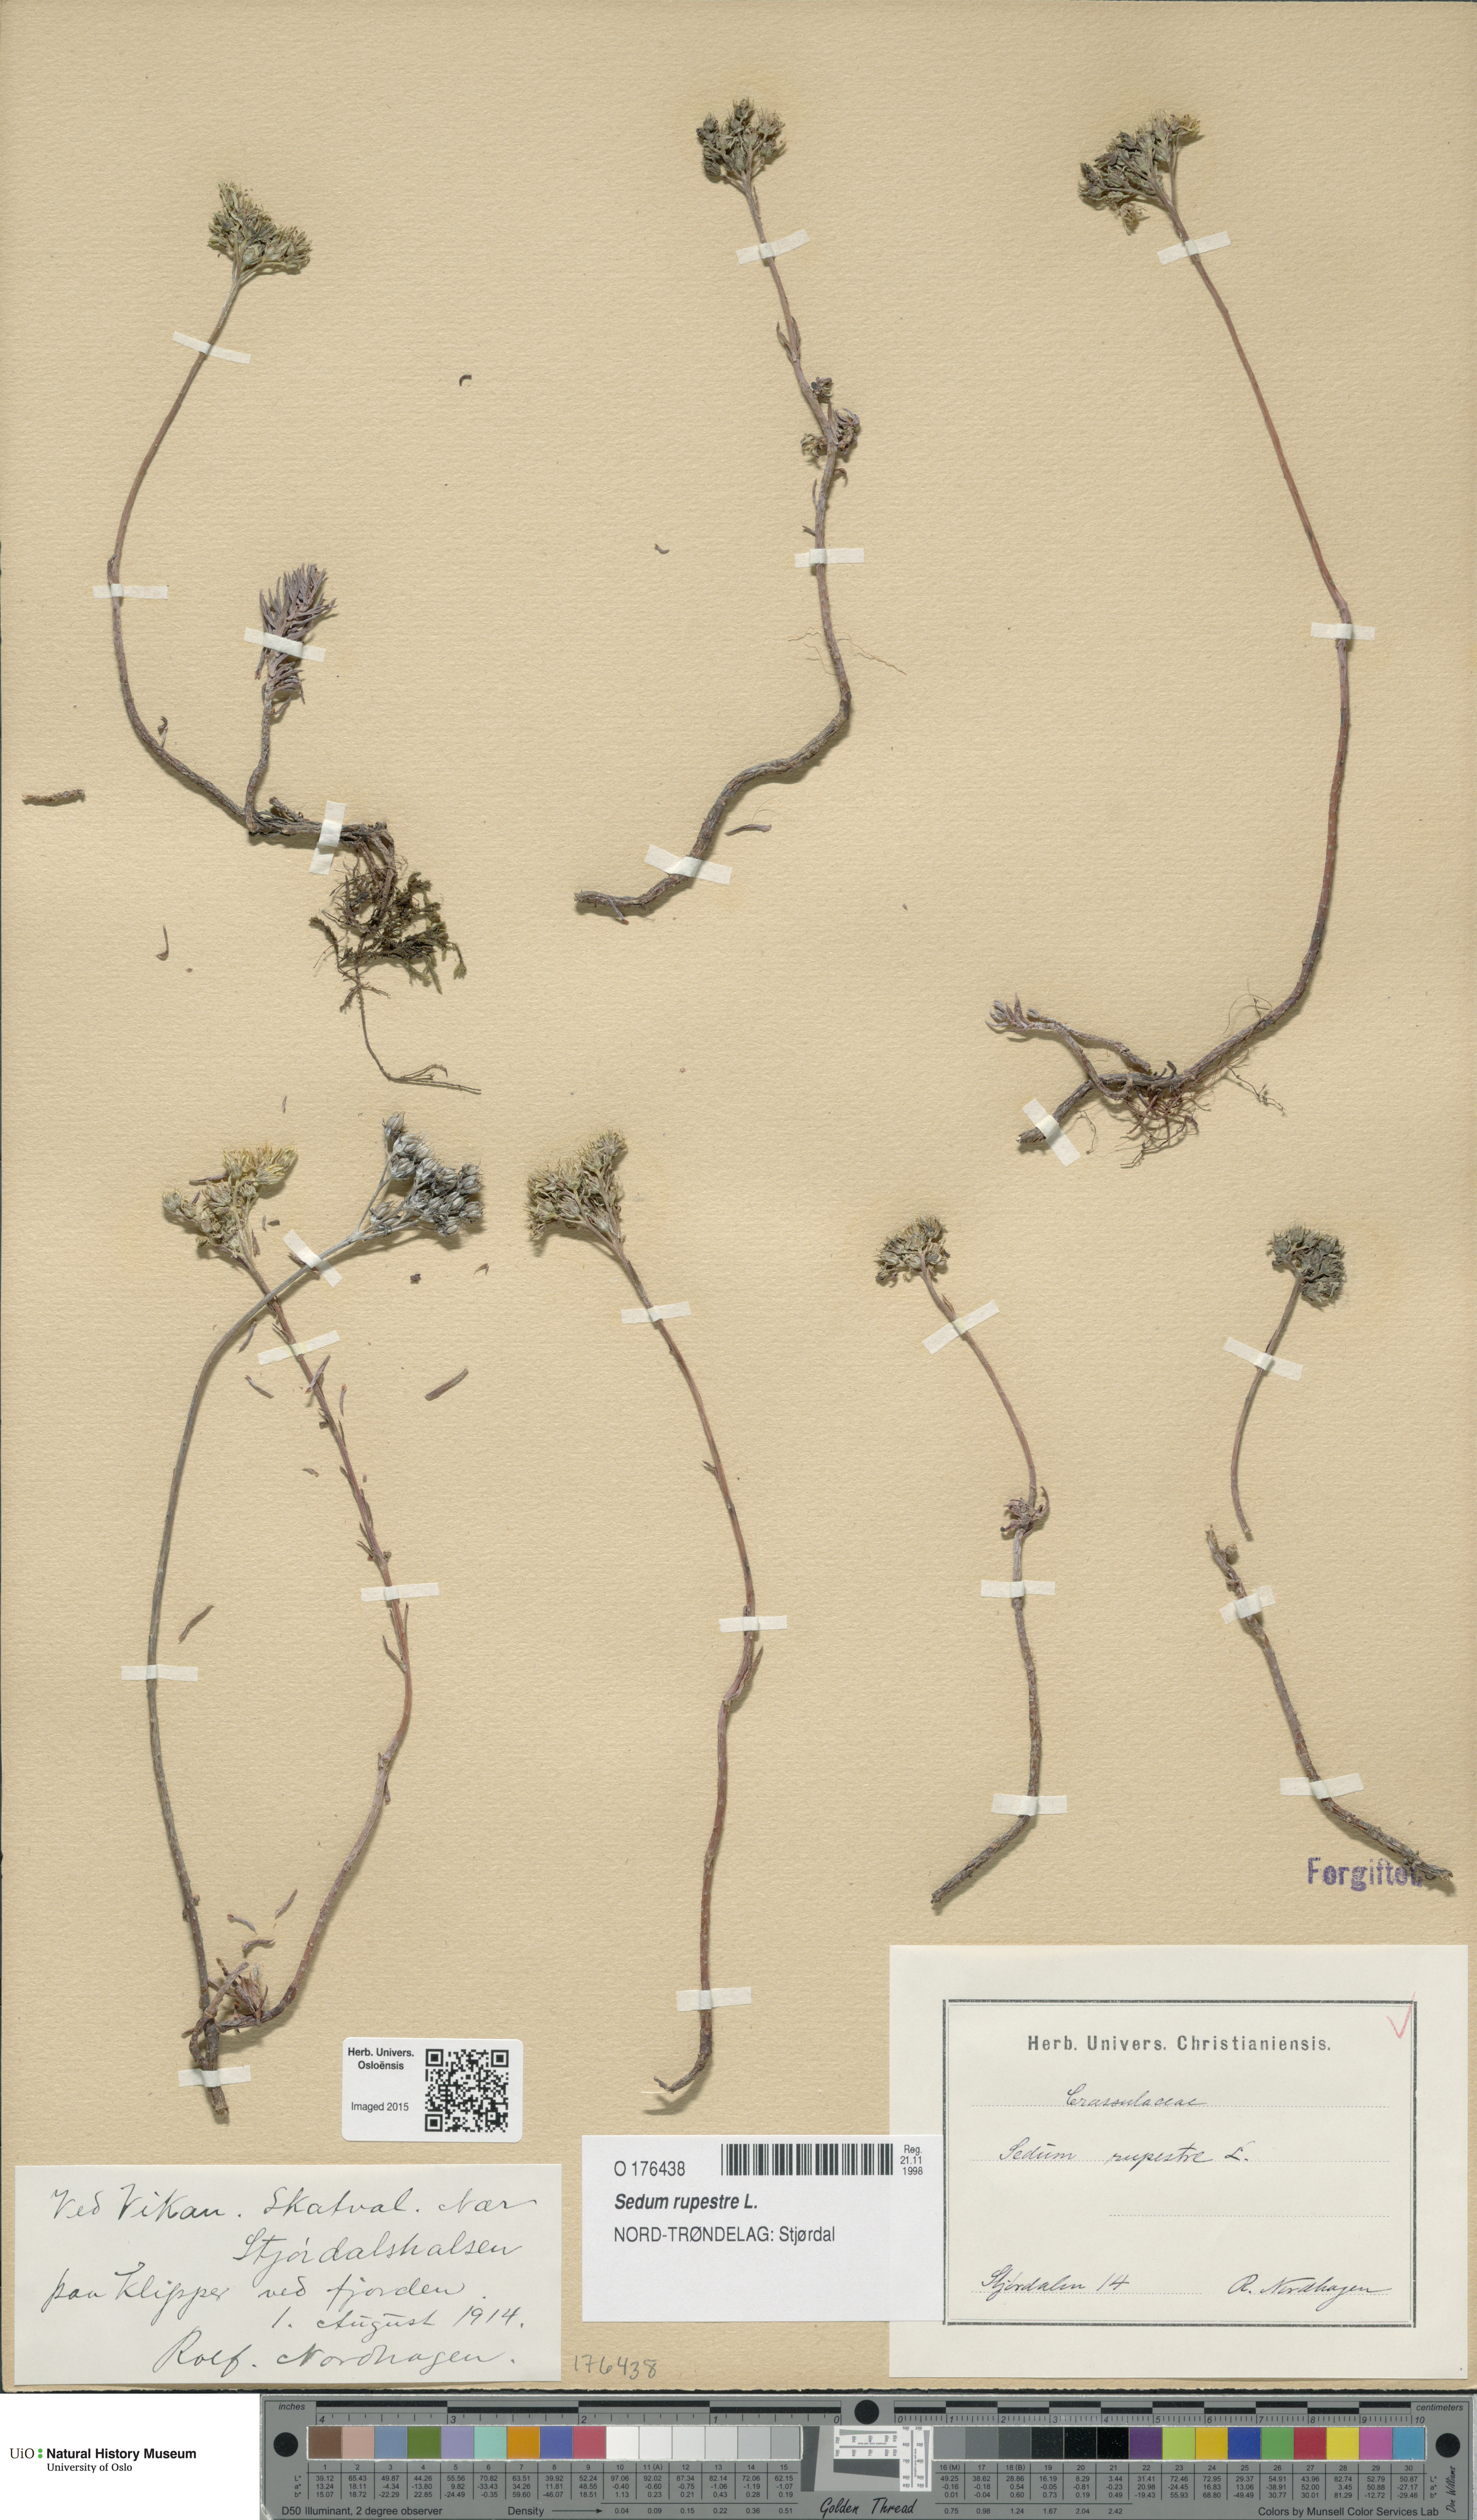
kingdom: Plantae
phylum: Tracheophyta
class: Magnoliopsida
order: Saxifragales
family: Crassulaceae
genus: Petrosedum
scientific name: Petrosedum rupestre
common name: Jenny's stonecrop
